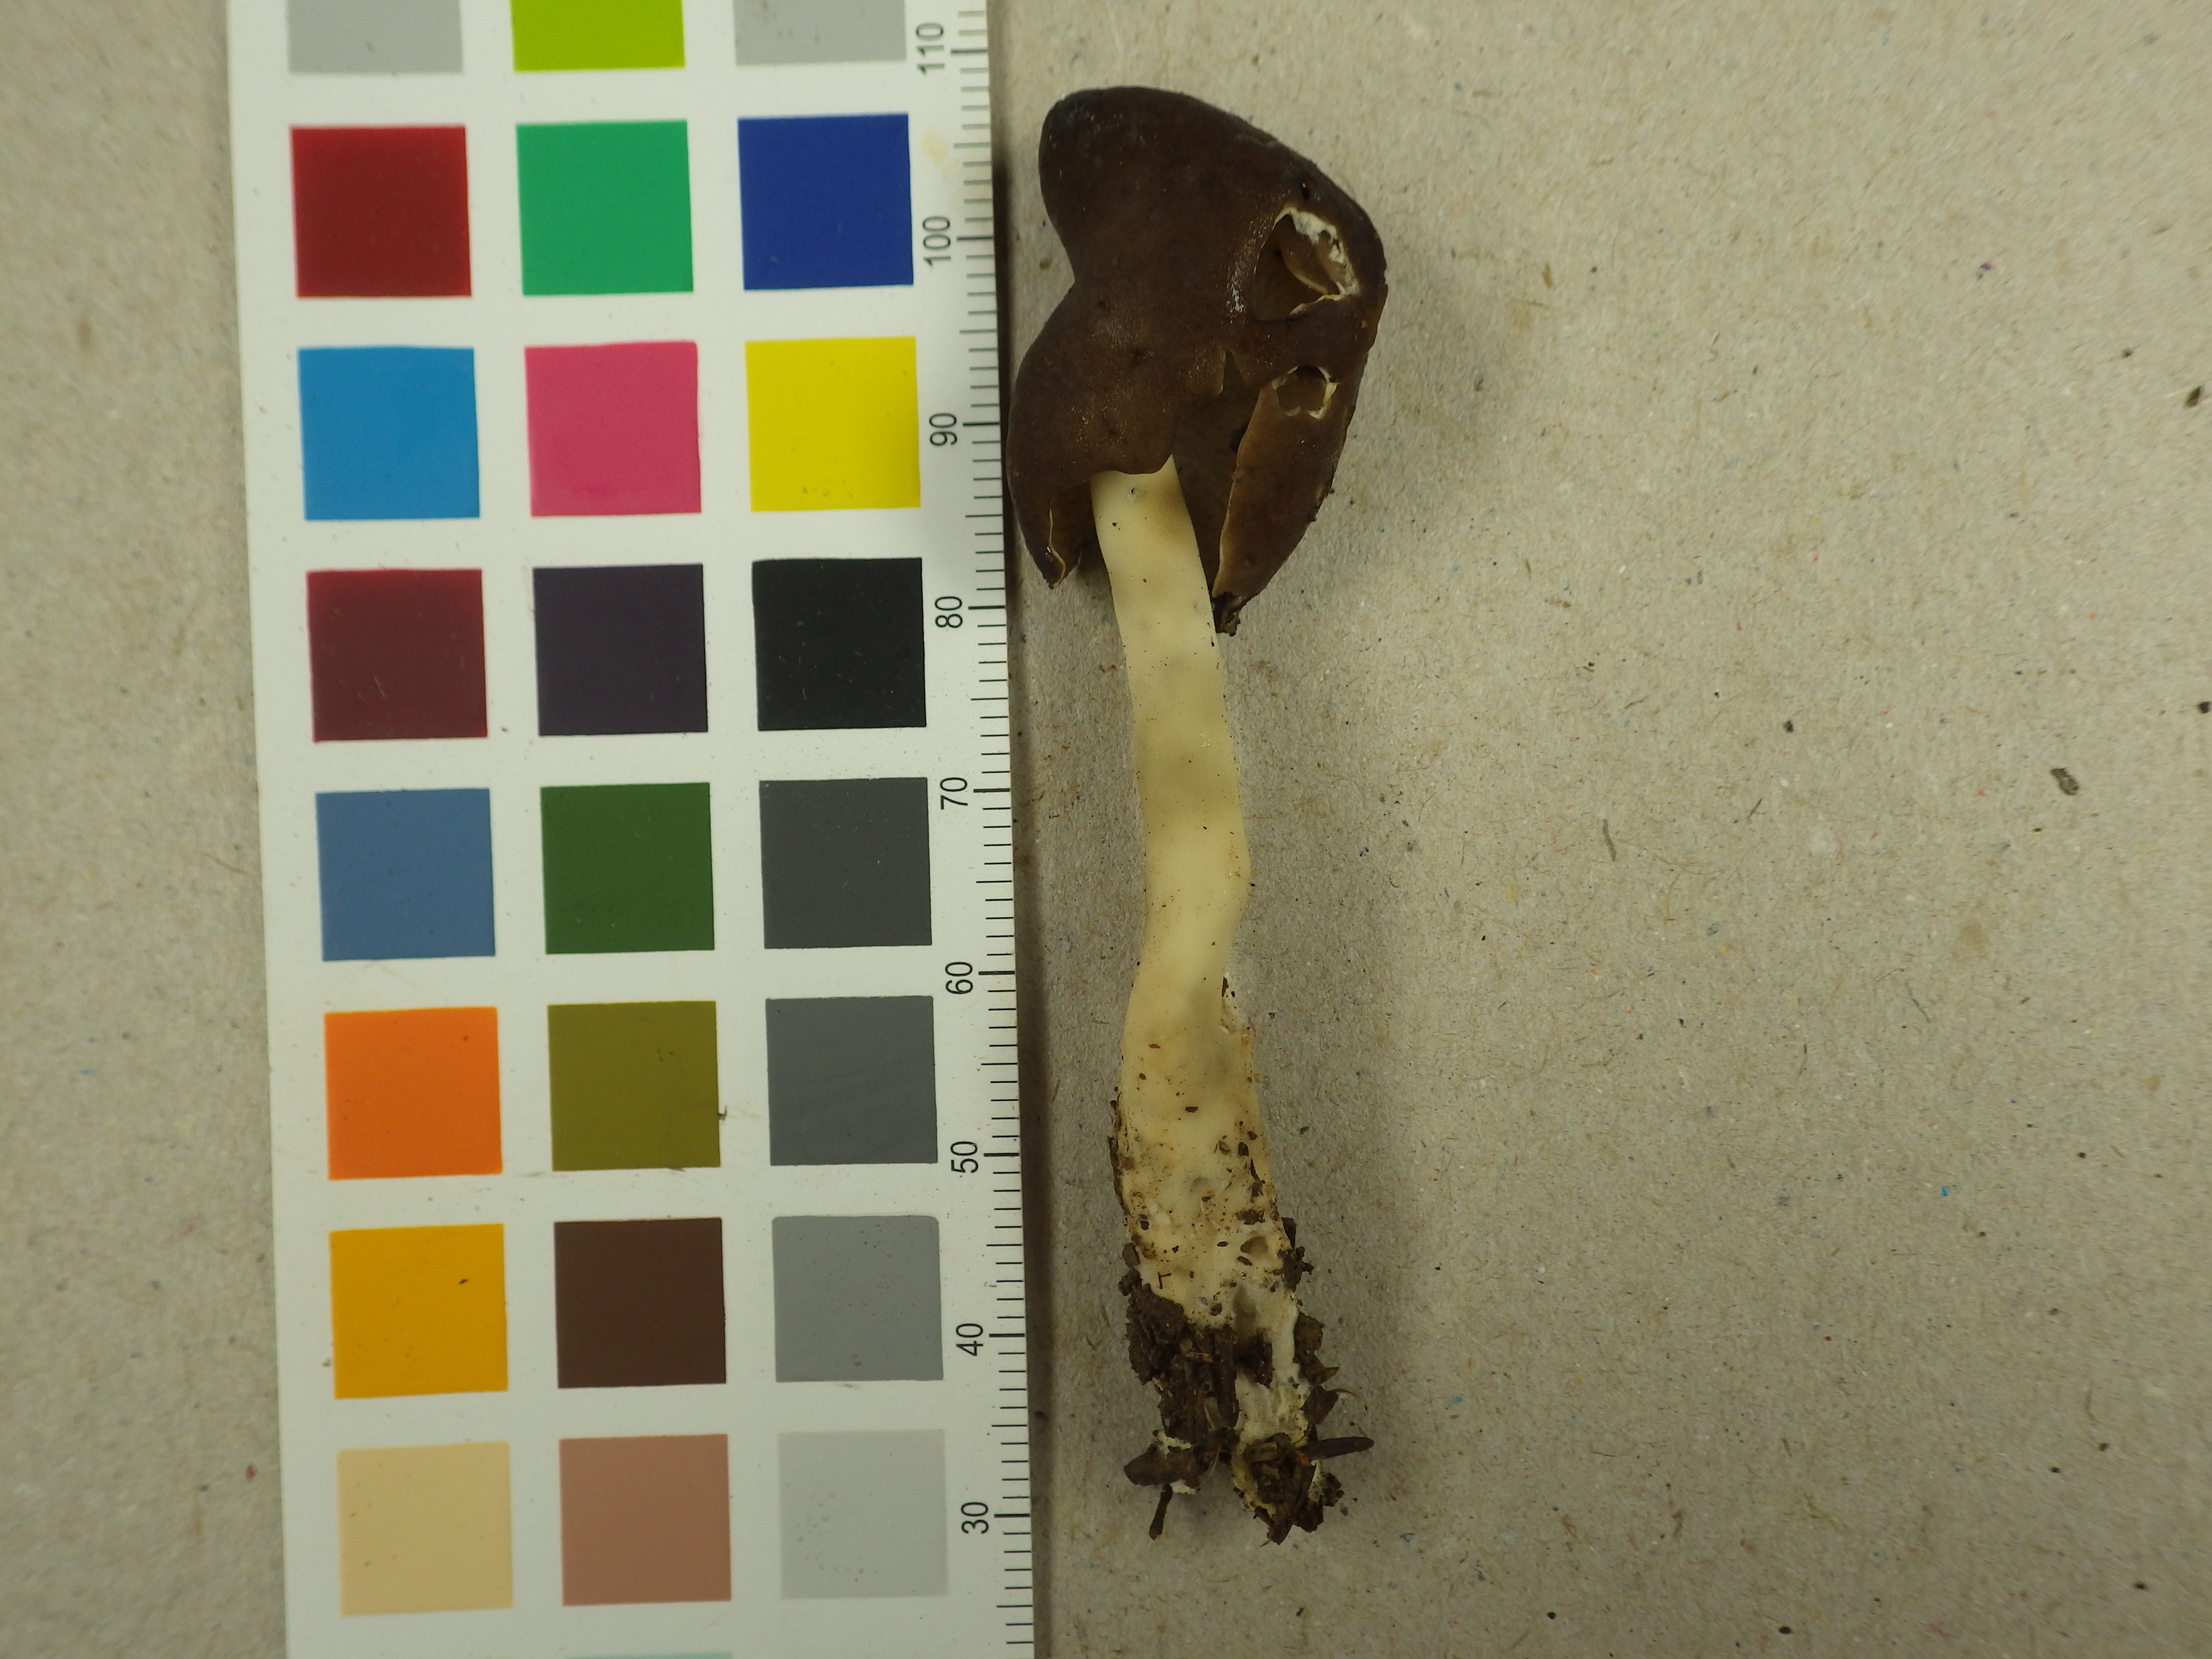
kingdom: Fungi
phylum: Ascomycota
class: Pezizomycetes
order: Pezizales
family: Helvellaceae
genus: Helvella
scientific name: Helvella elastica
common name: Elastic saddle
